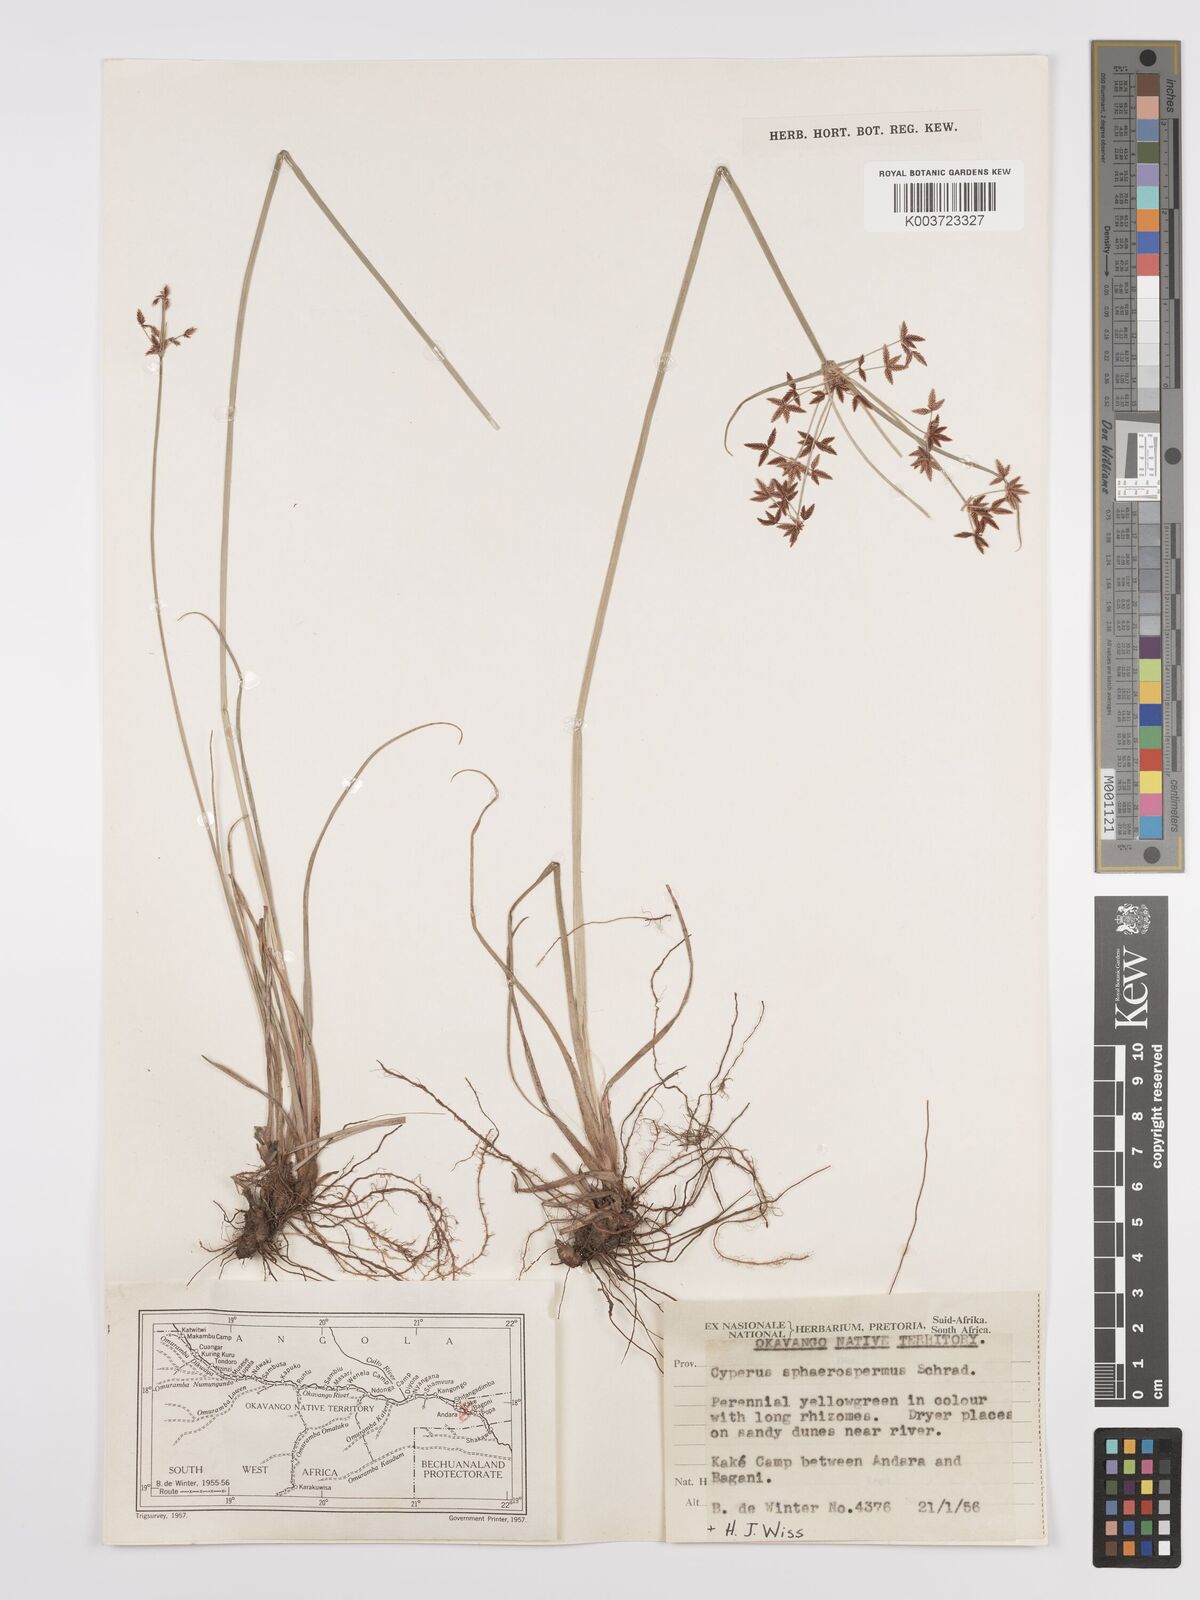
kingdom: Plantae
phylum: Tracheophyta
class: Liliopsida
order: Poales
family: Cyperaceae
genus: Cyperus
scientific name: Cyperus denudatus
